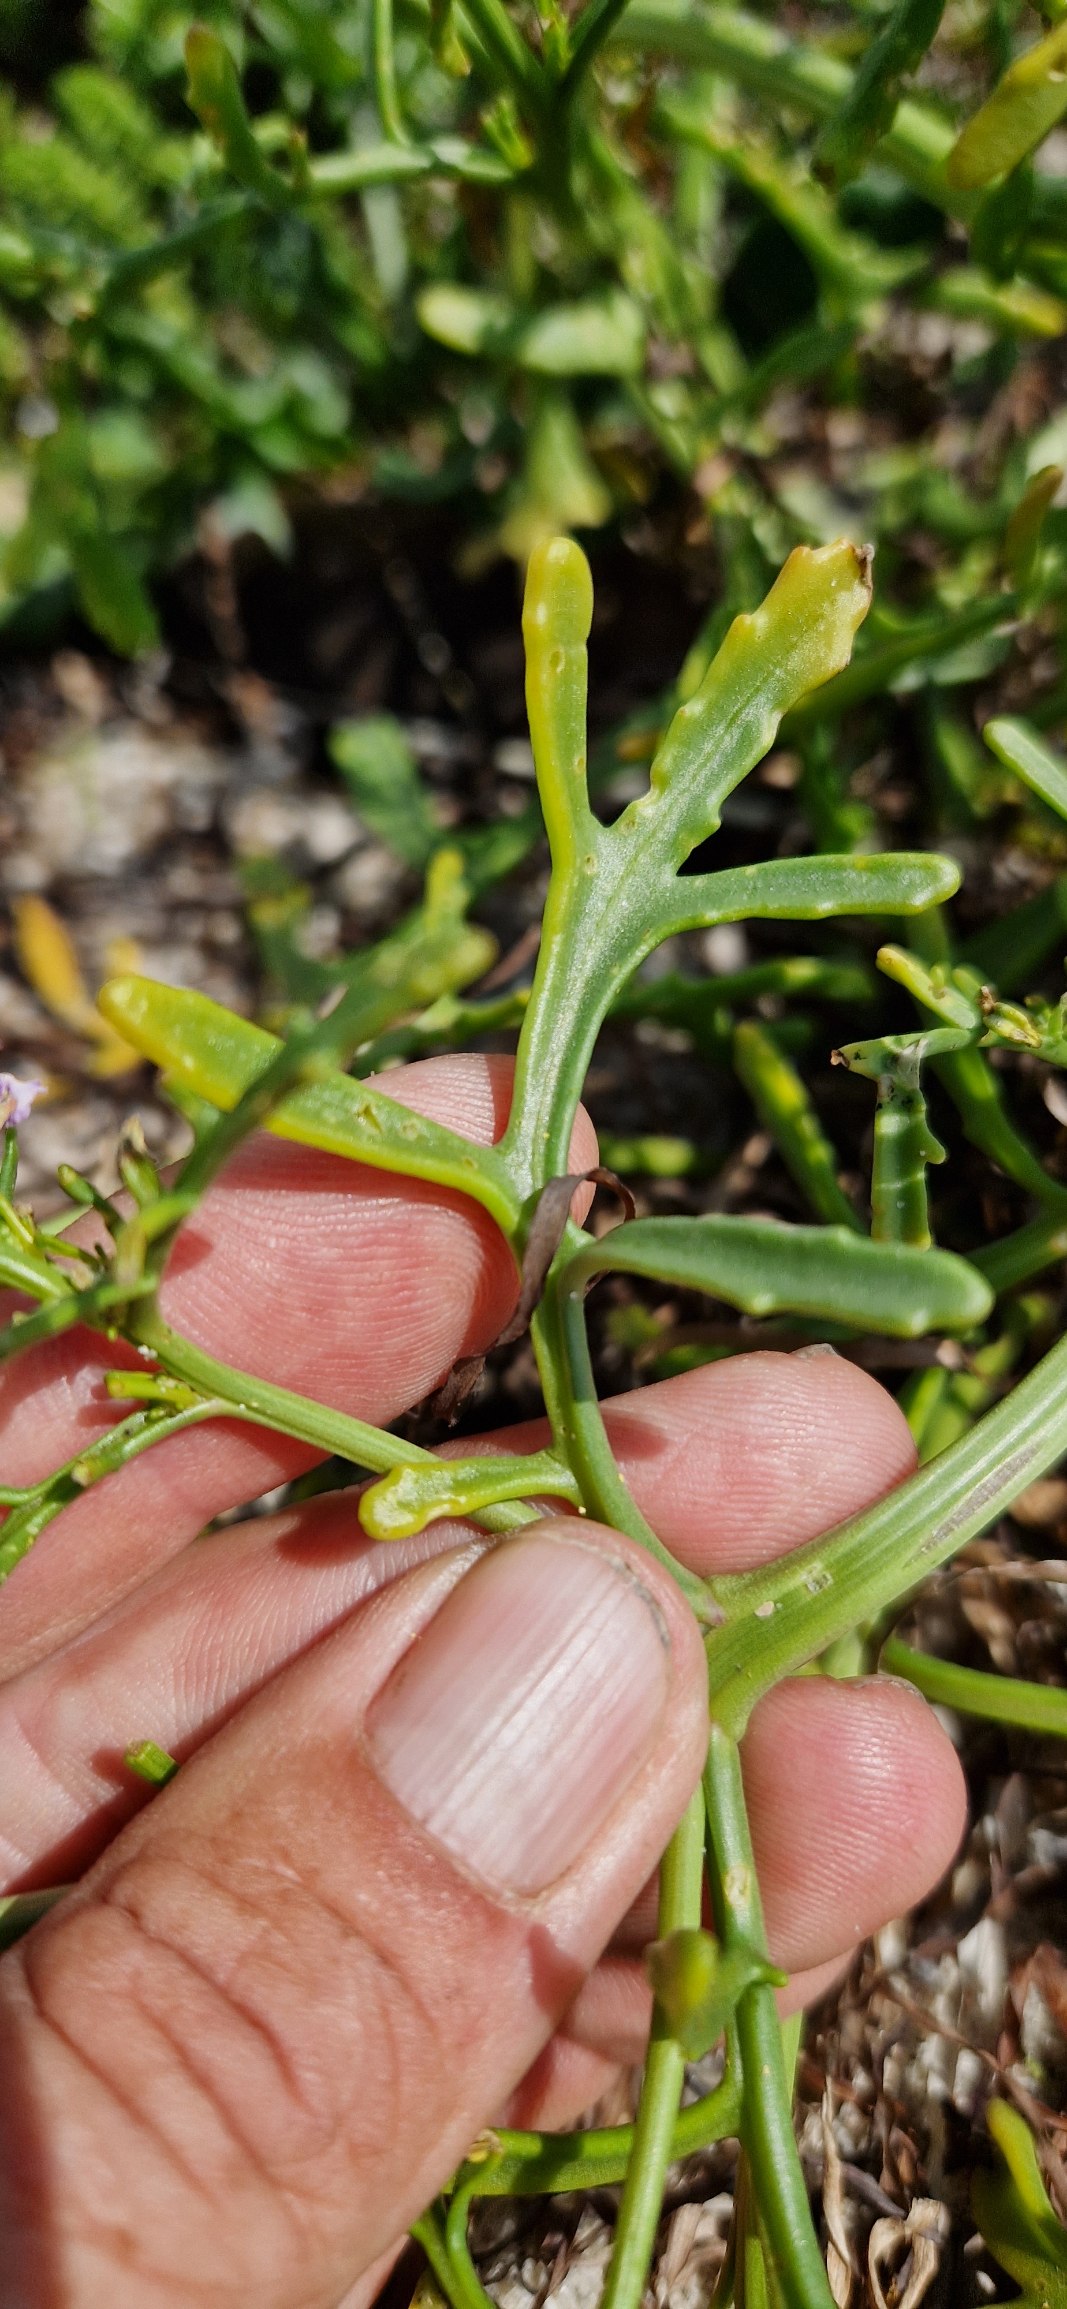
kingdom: Plantae
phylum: Tracheophyta
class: Magnoliopsida
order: Brassicales
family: Brassicaceae
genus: Cakile
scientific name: Cakile maritima
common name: Østersø-strandsennep
